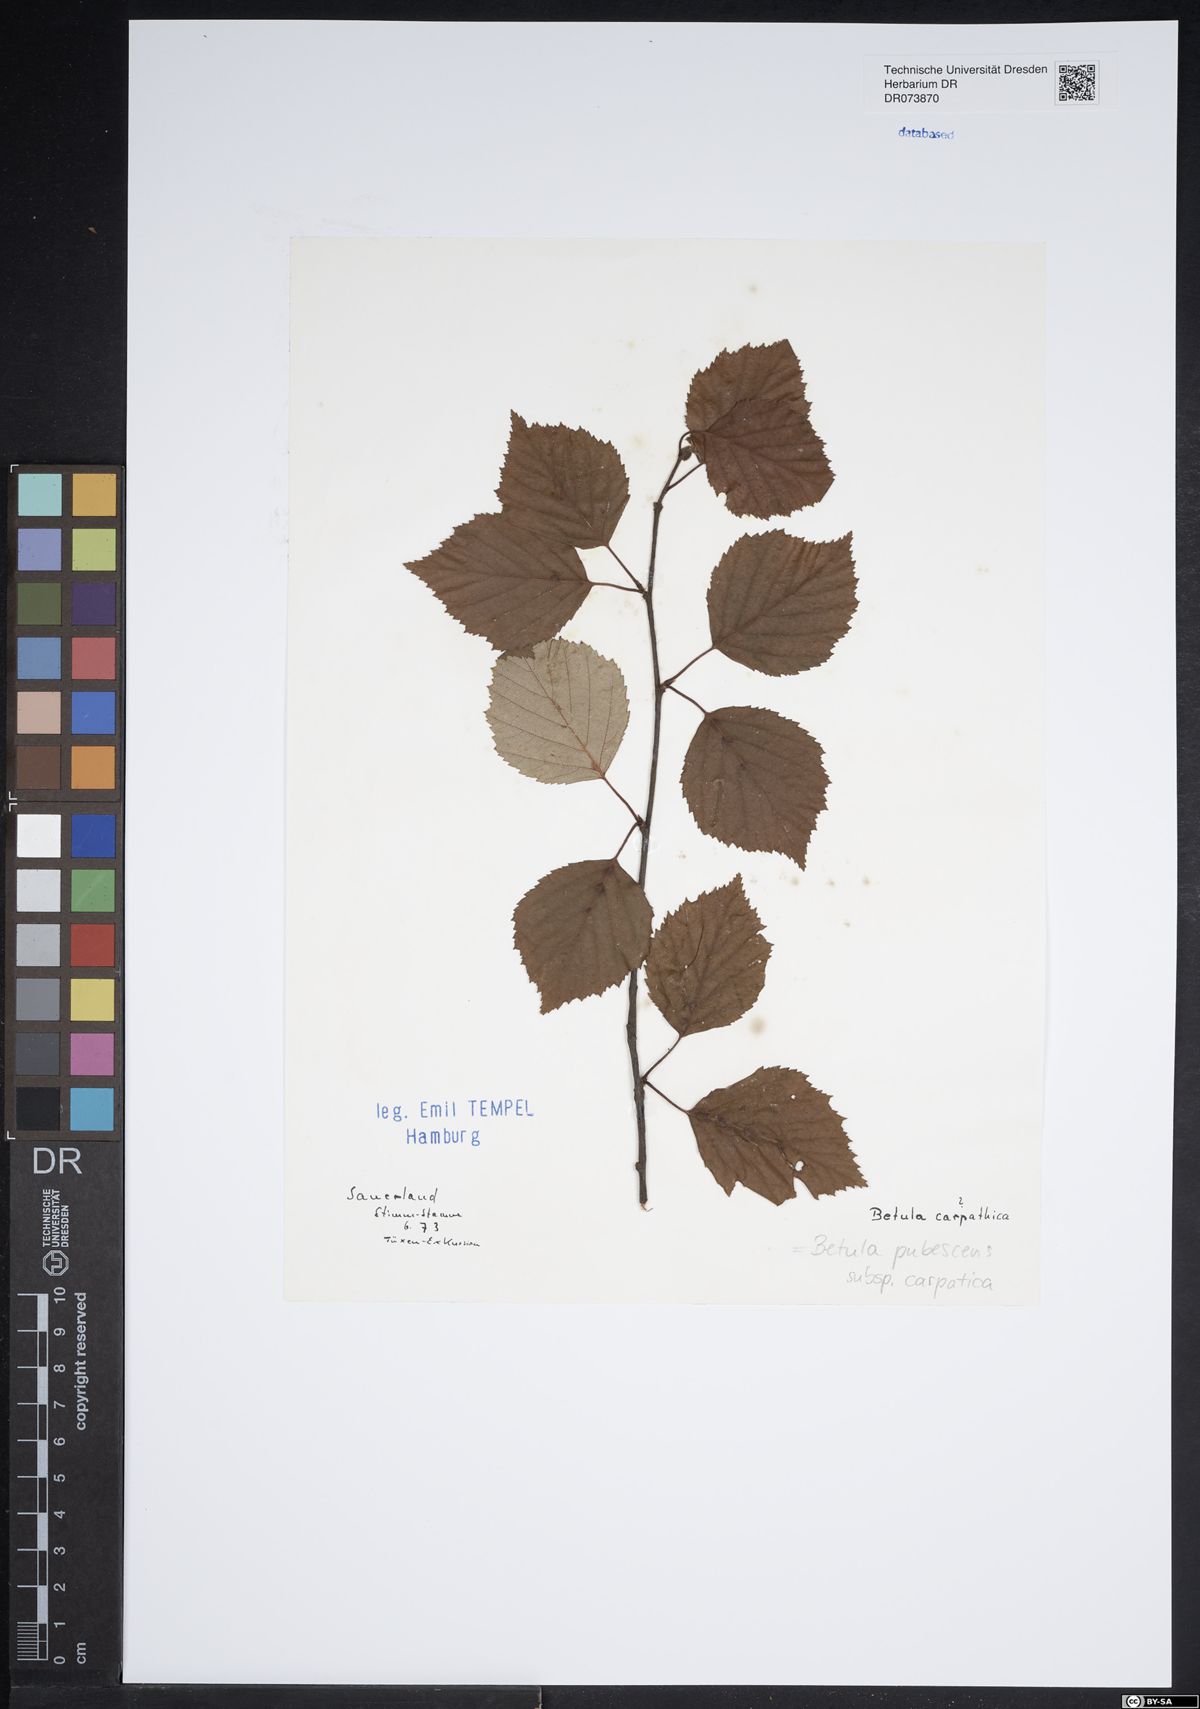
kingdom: Plantae
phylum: Tracheophyta
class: Magnoliopsida
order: Fagales
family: Betulaceae
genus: Betula
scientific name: Betula pubescens
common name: Downy birch
